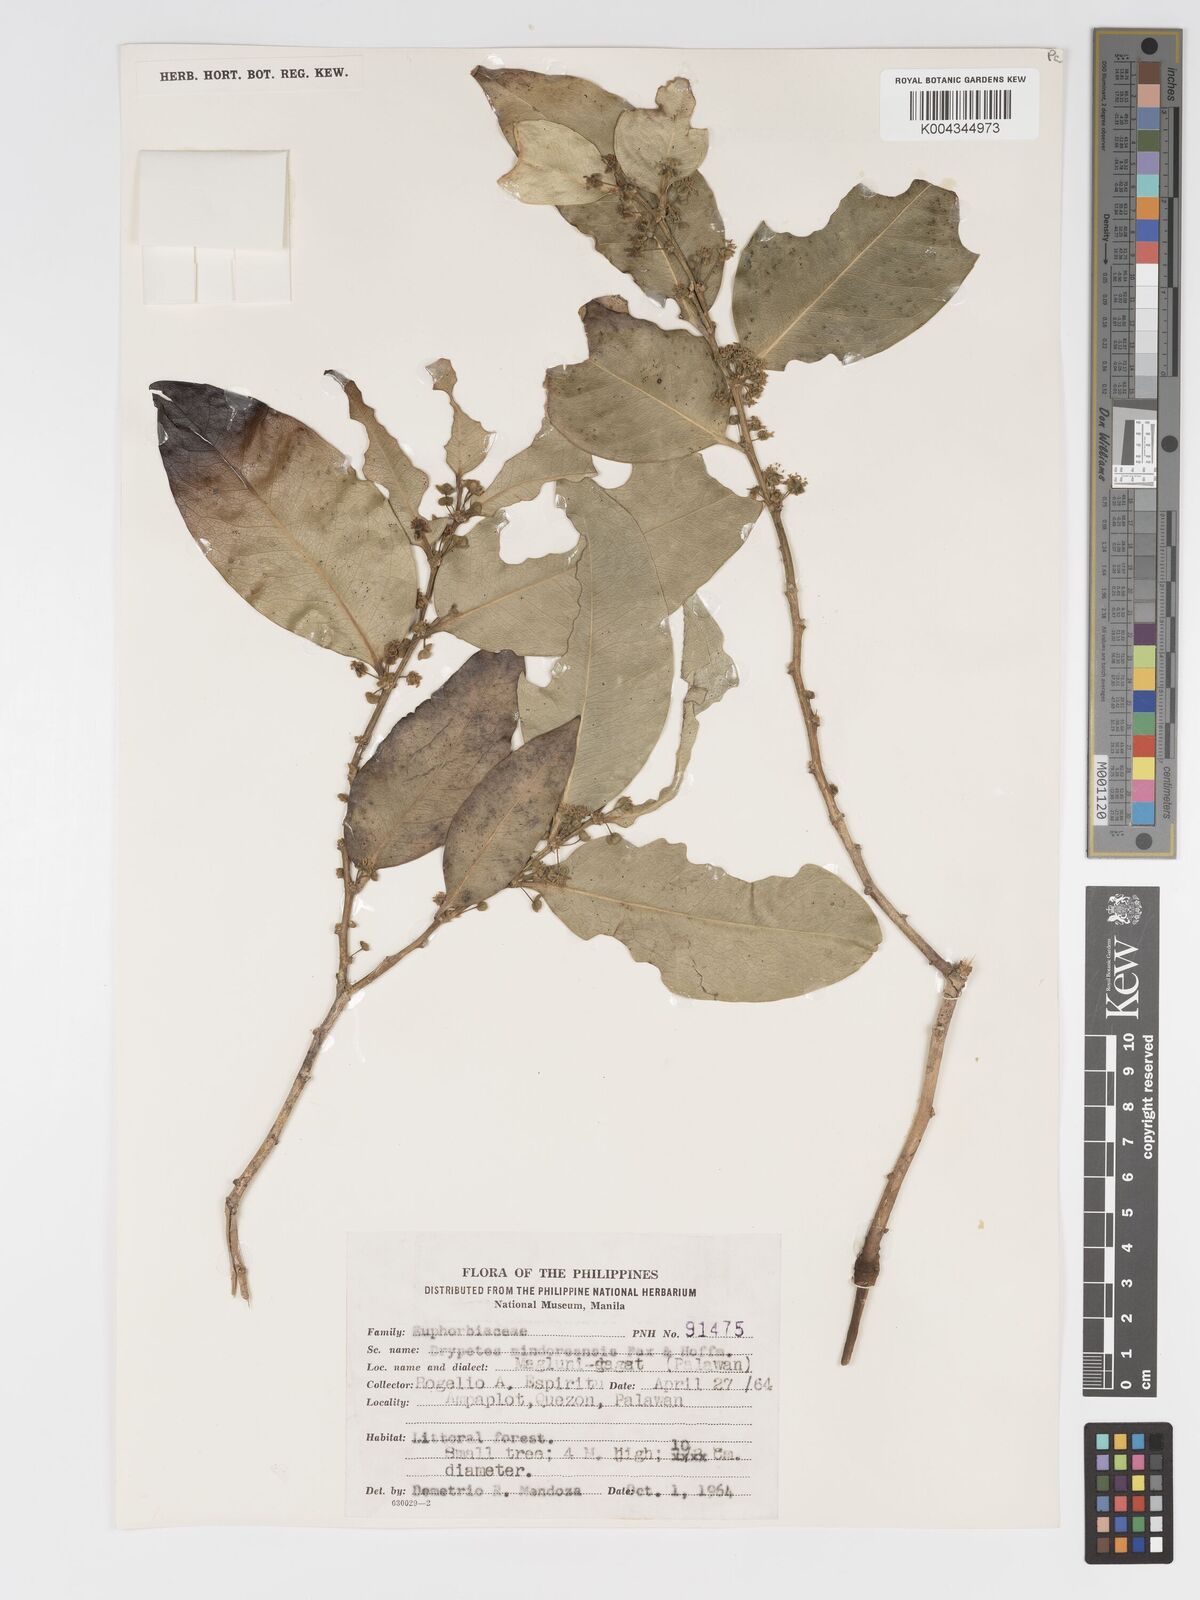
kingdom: Plantae
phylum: Tracheophyta
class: Magnoliopsida
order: Malpighiales
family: Putranjivaceae
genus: Drypetes
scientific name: Drypetes littoralis
